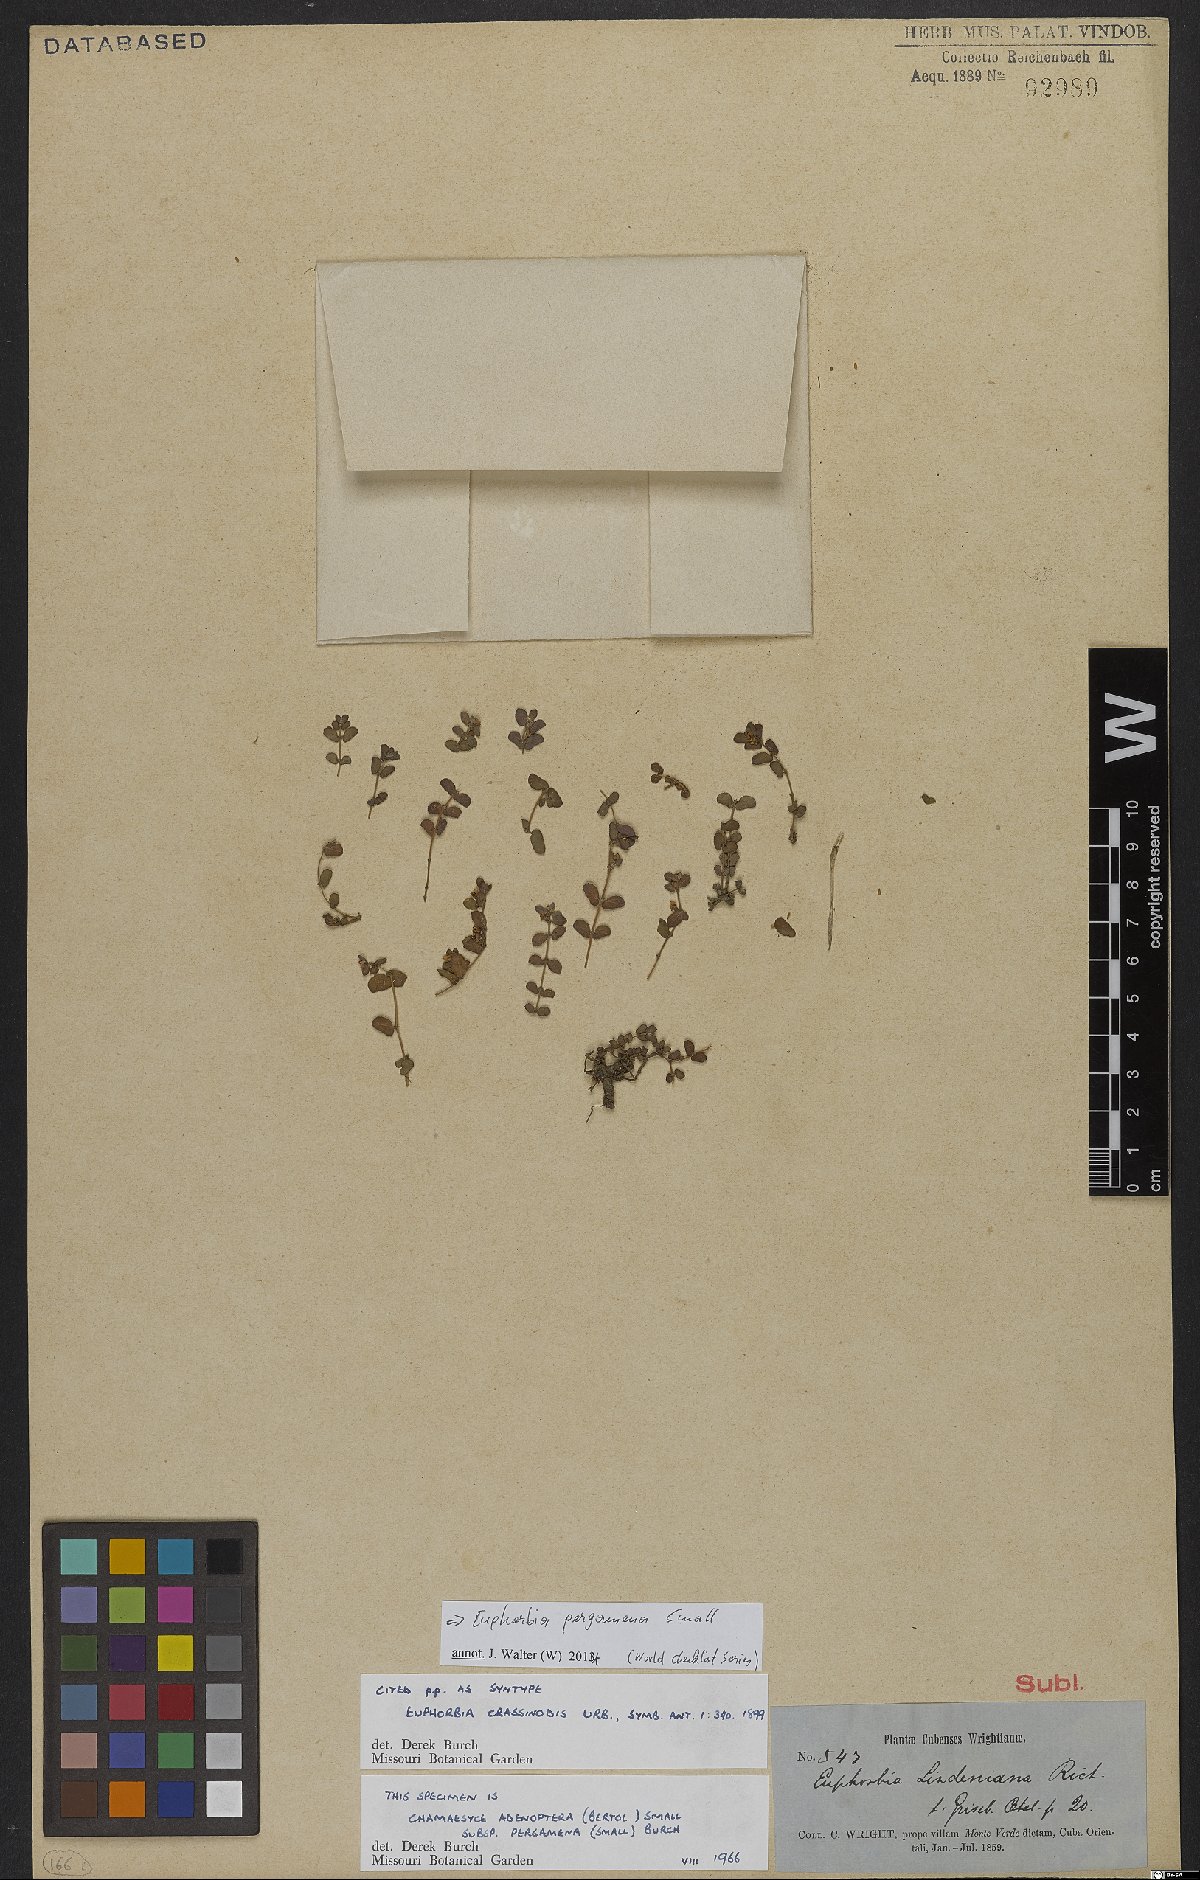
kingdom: Plantae
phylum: Tracheophyta
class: Magnoliopsida
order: Malpighiales
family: Euphorbiaceae
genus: Euphorbia
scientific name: Euphorbia pergamena
